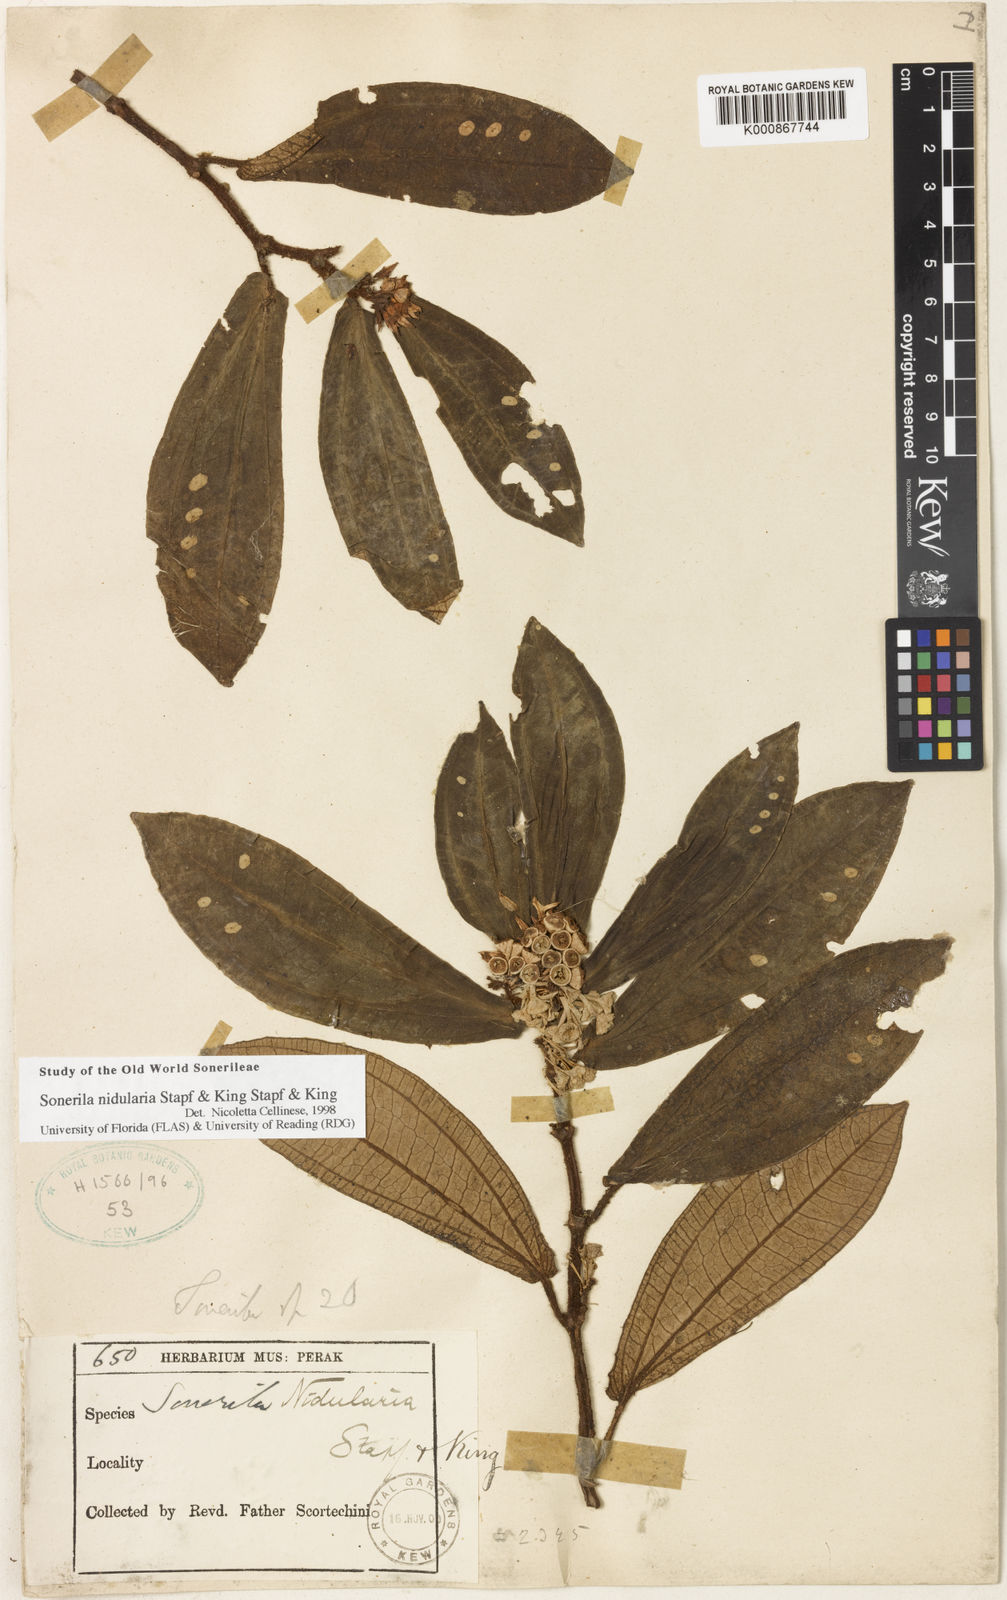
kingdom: Plantae
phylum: Tracheophyta
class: Magnoliopsida
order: Myrtales
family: Melastomataceae
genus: Sonerila
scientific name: Sonerila nidularia
